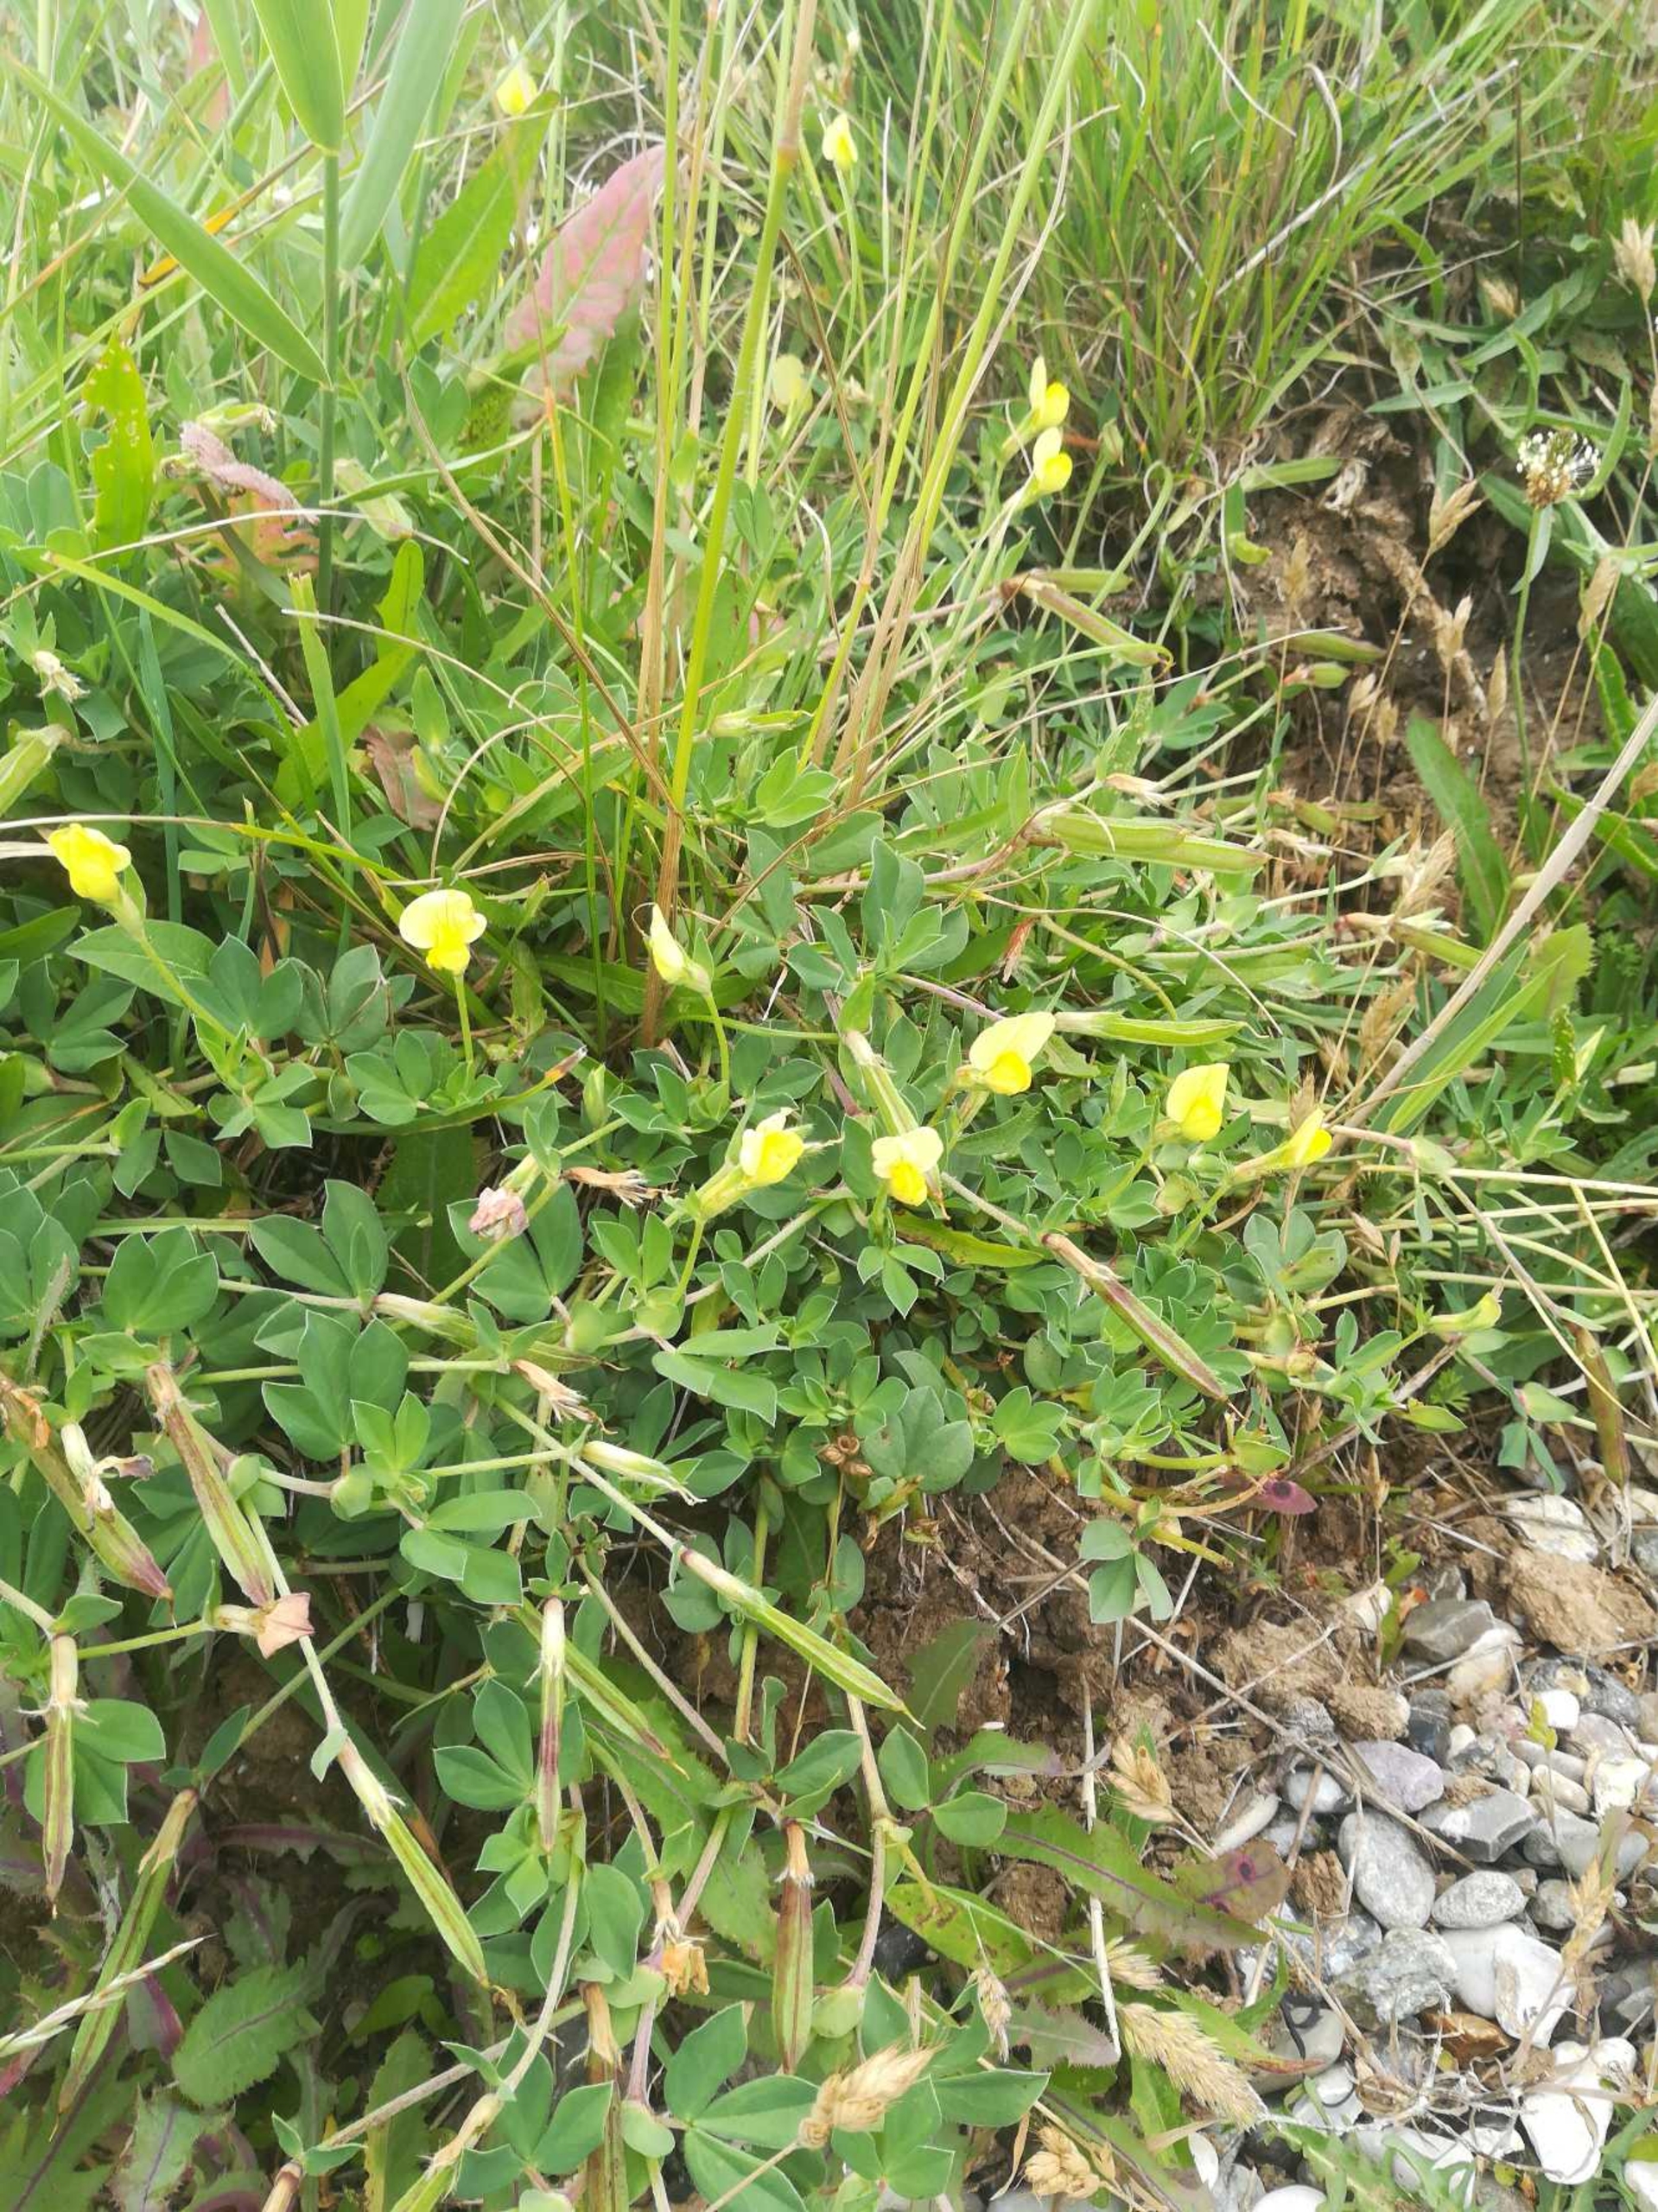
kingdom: Plantae
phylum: Tracheophyta
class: Magnoliopsida
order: Fabales
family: Fabaceae
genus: Lotus
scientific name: Lotus maritimus
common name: Kantbælg
